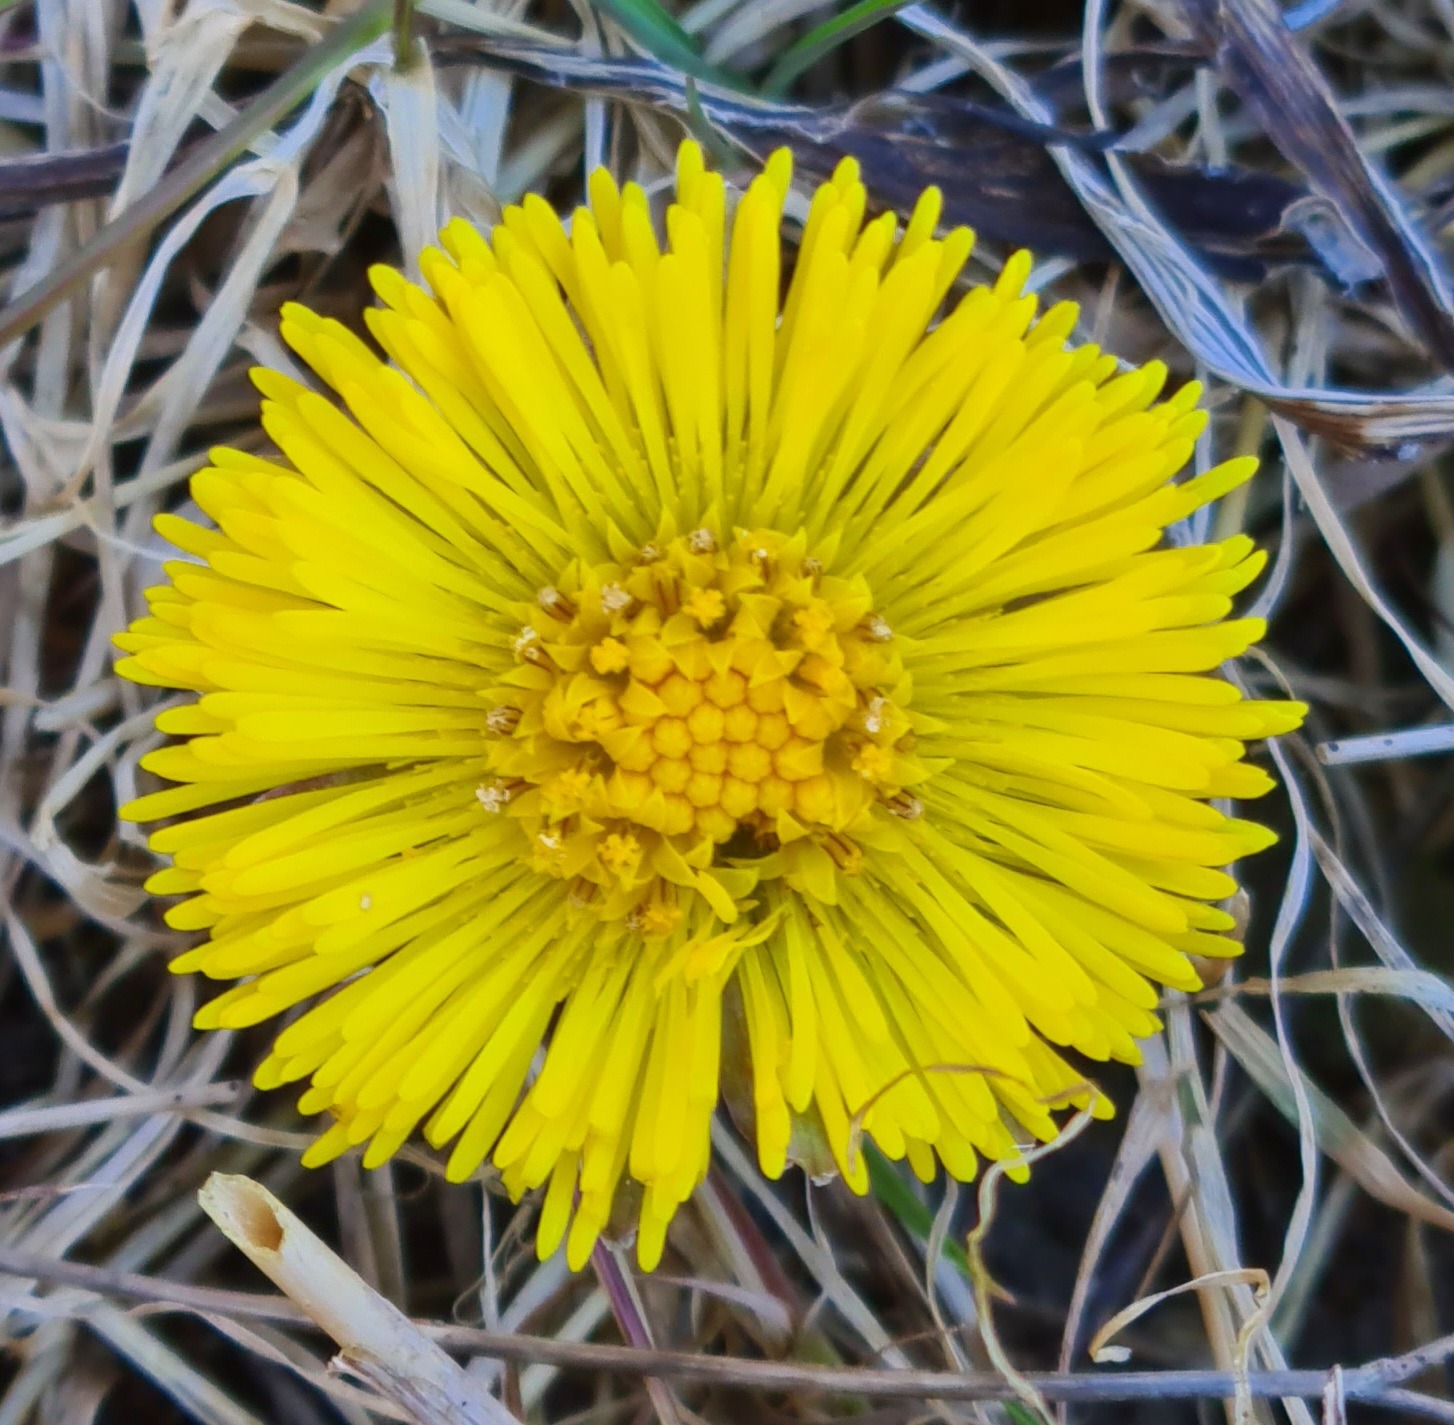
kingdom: Plantae
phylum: Tracheophyta
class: Magnoliopsida
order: Asterales
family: Asteraceae
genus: Tussilago
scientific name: Tussilago farfara
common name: Følfod
